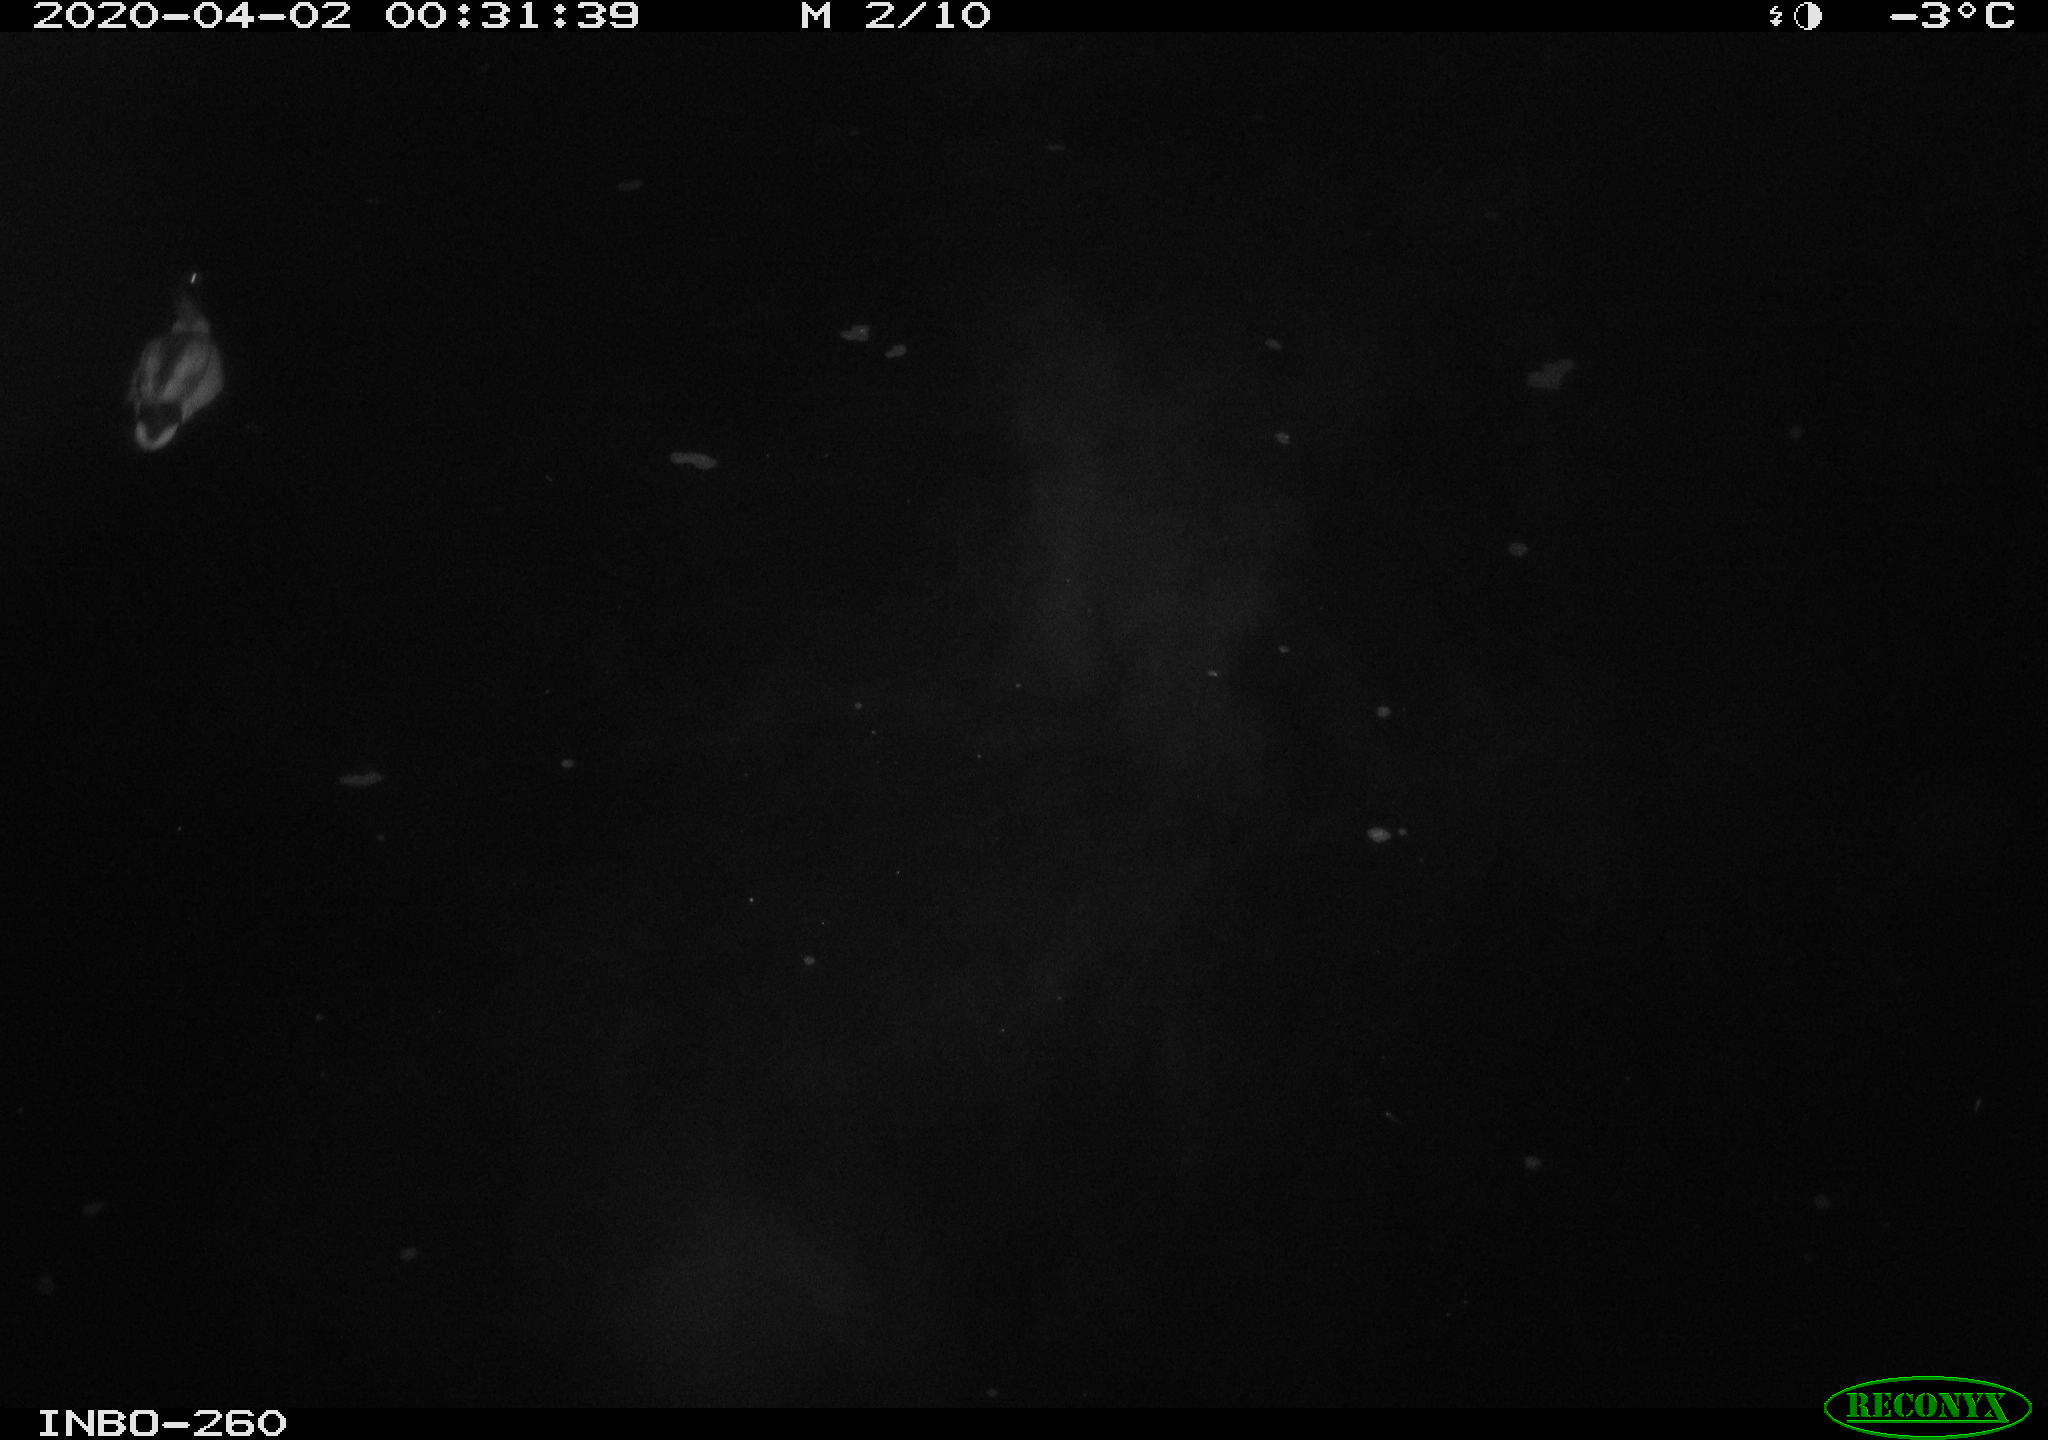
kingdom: Animalia
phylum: Chordata
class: Aves
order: Anseriformes
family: Anatidae
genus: Anas
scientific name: Anas platyrhynchos
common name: Mallard
